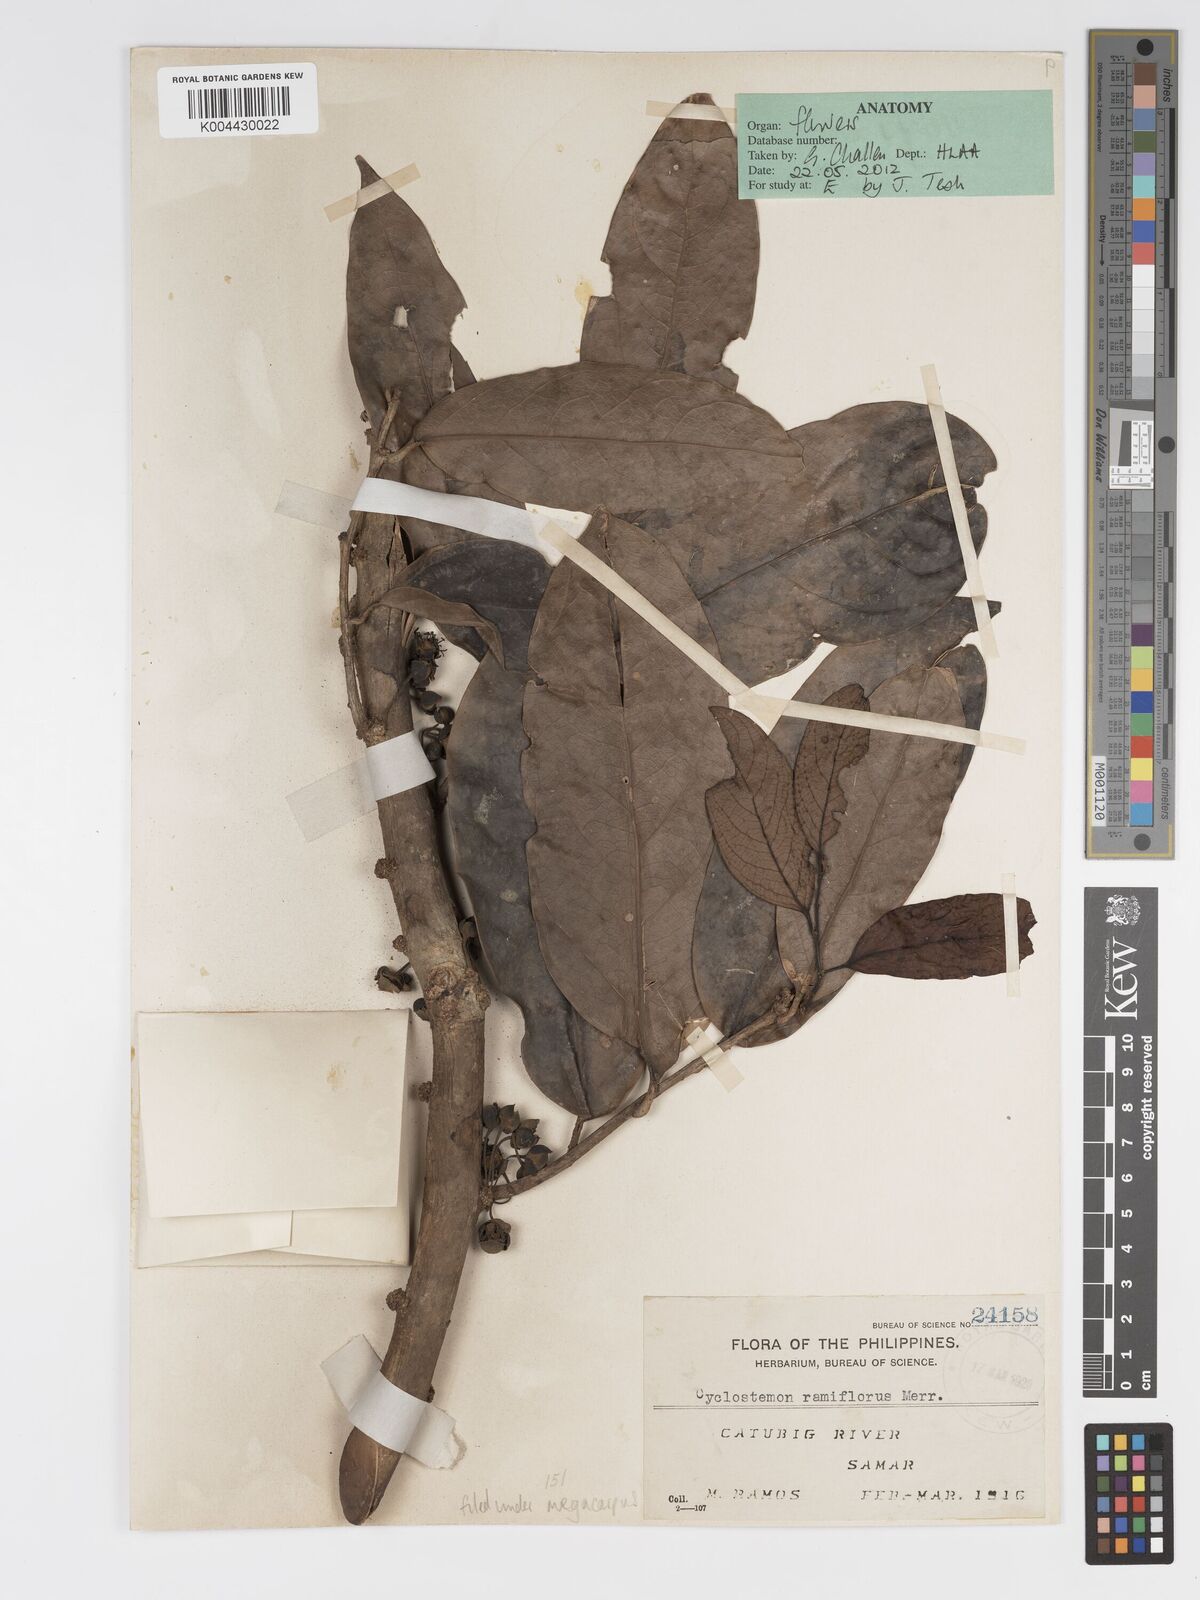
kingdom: Plantae
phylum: Tracheophyta
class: Magnoliopsida
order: Malpighiales
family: Putranjivaceae
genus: Drypetes
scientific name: Drypetes grandifolia
